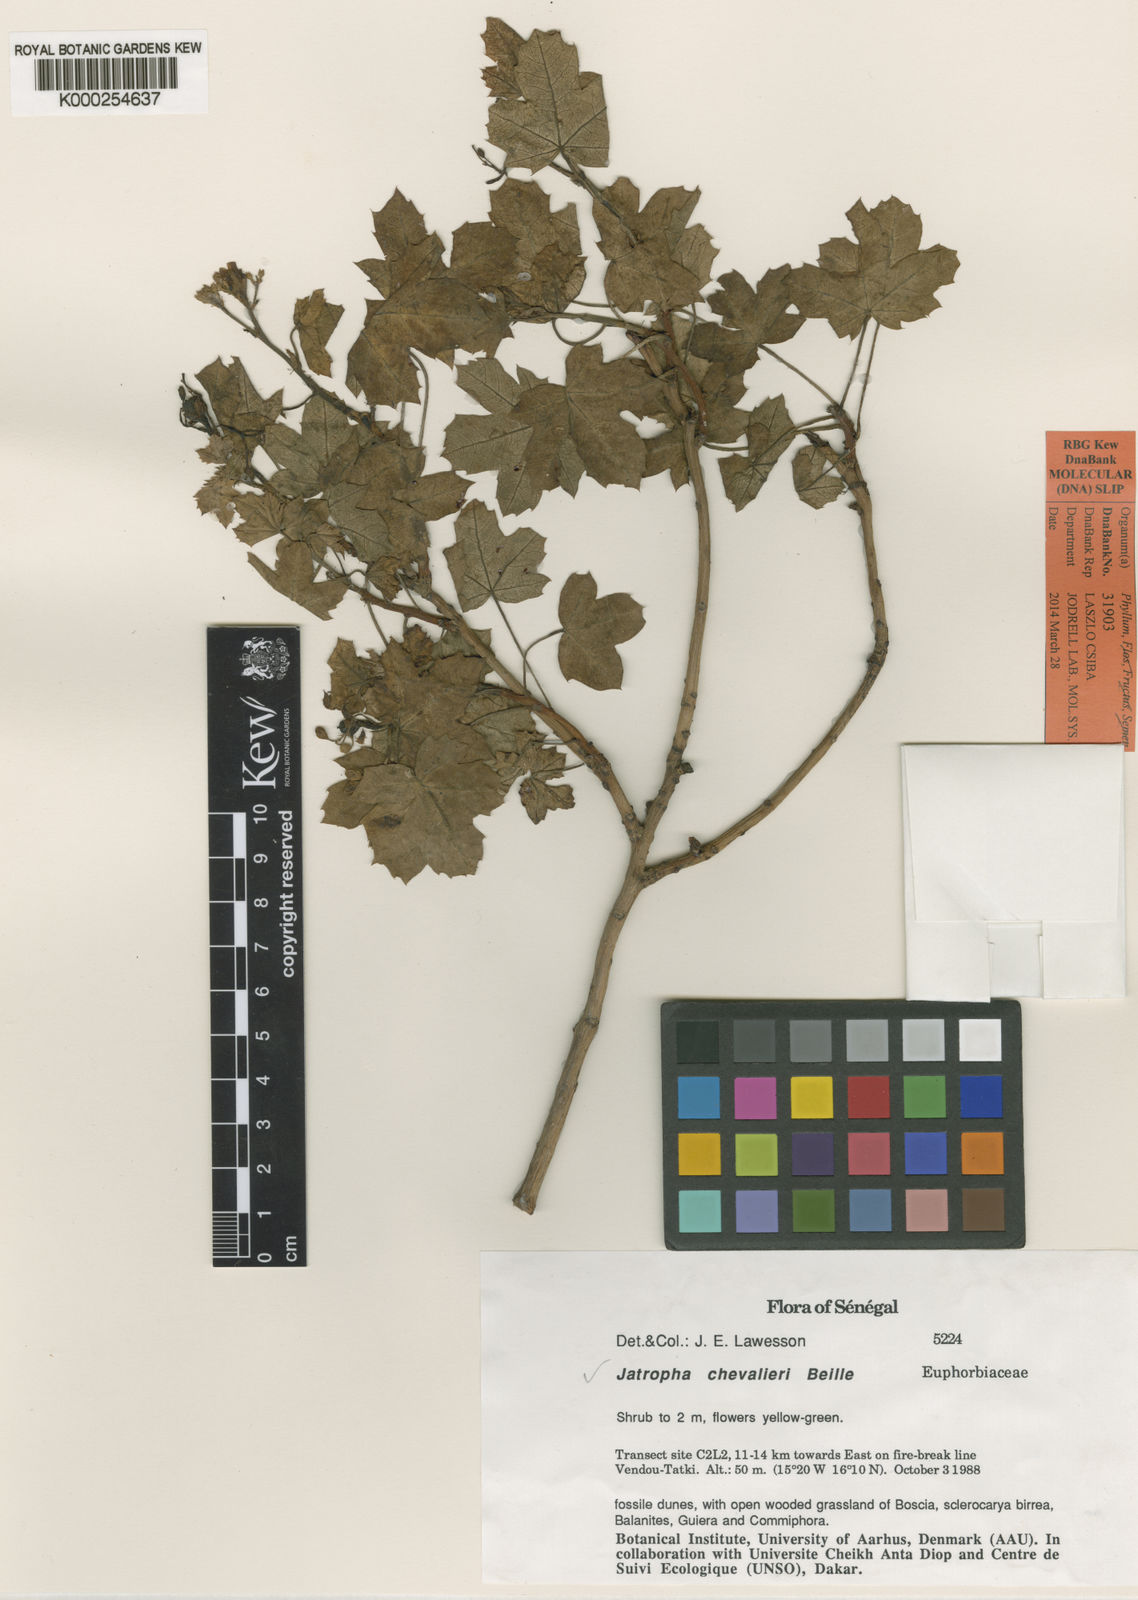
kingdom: Plantae
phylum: Tracheophyta
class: Magnoliopsida
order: Malpighiales
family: Euphorbiaceae
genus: Jatropha
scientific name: Jatropha chevalieri
